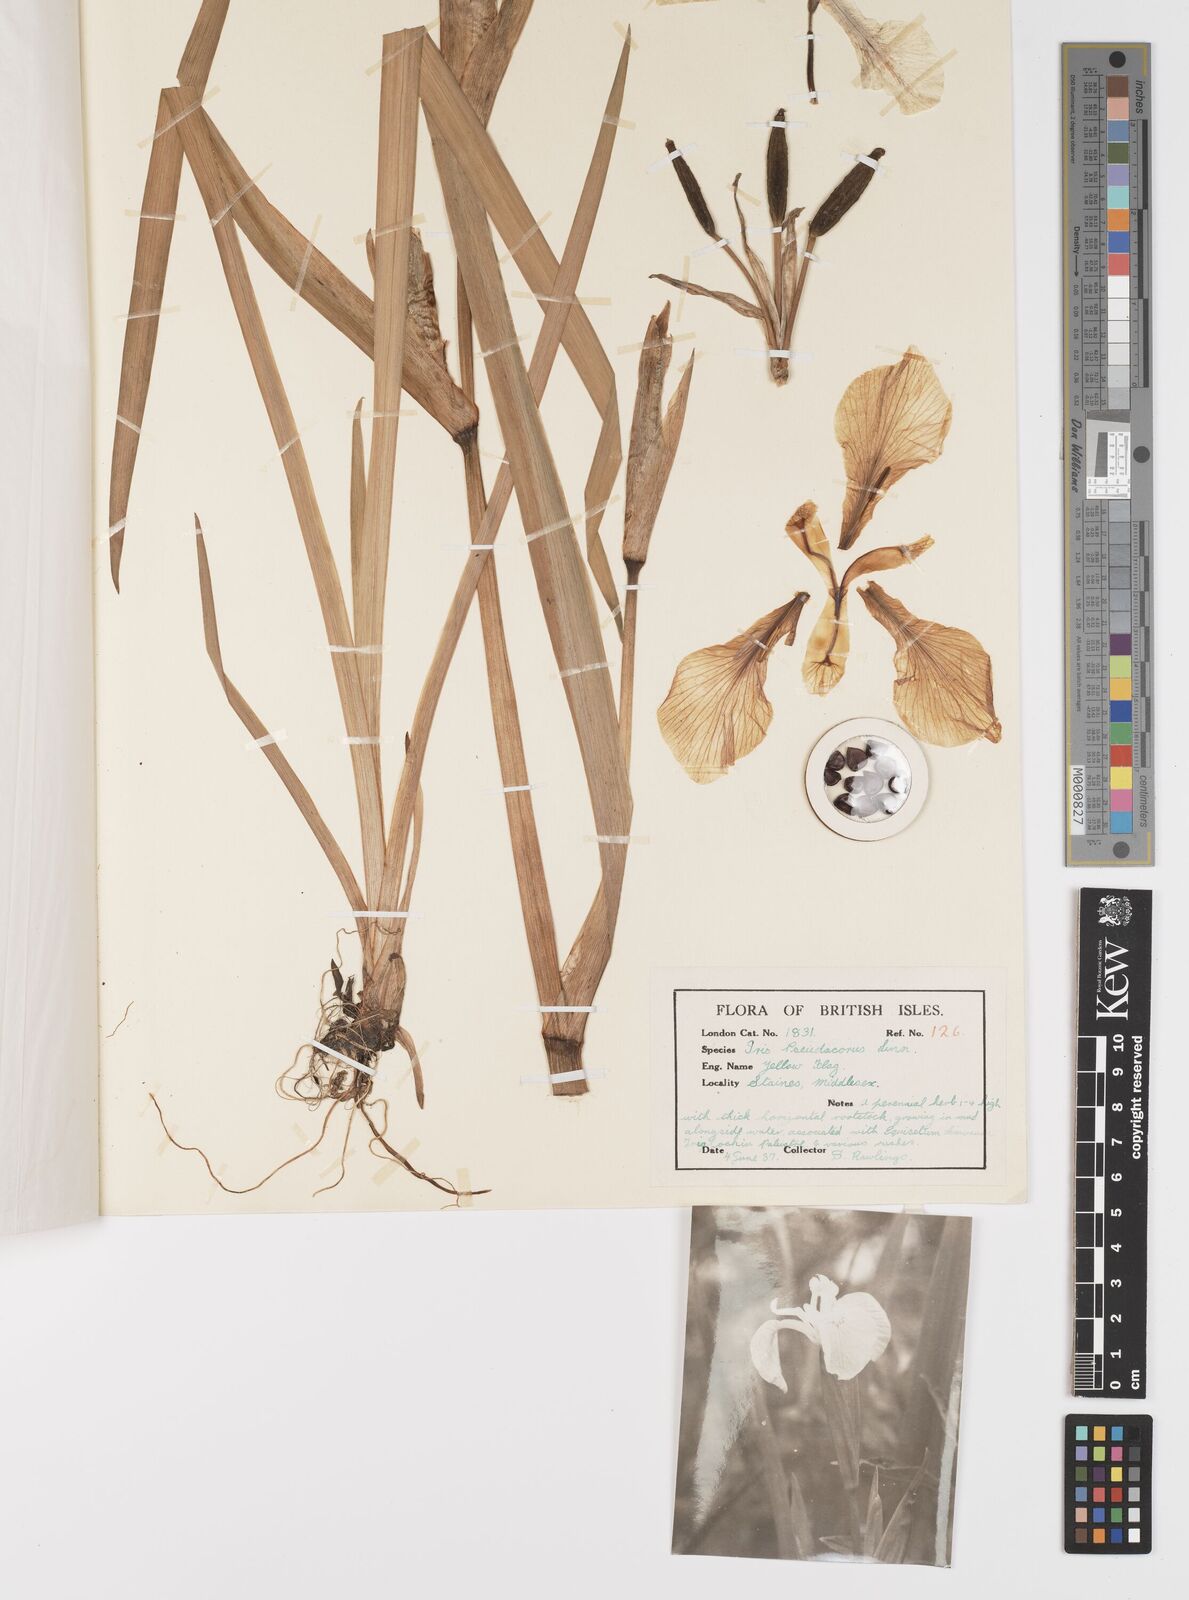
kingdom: Plantae
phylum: Tracheophyta
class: Liliopsida
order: Asparagales
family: Iridaceae
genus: Iris
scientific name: Iris pseudacorus
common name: Yellow flag
